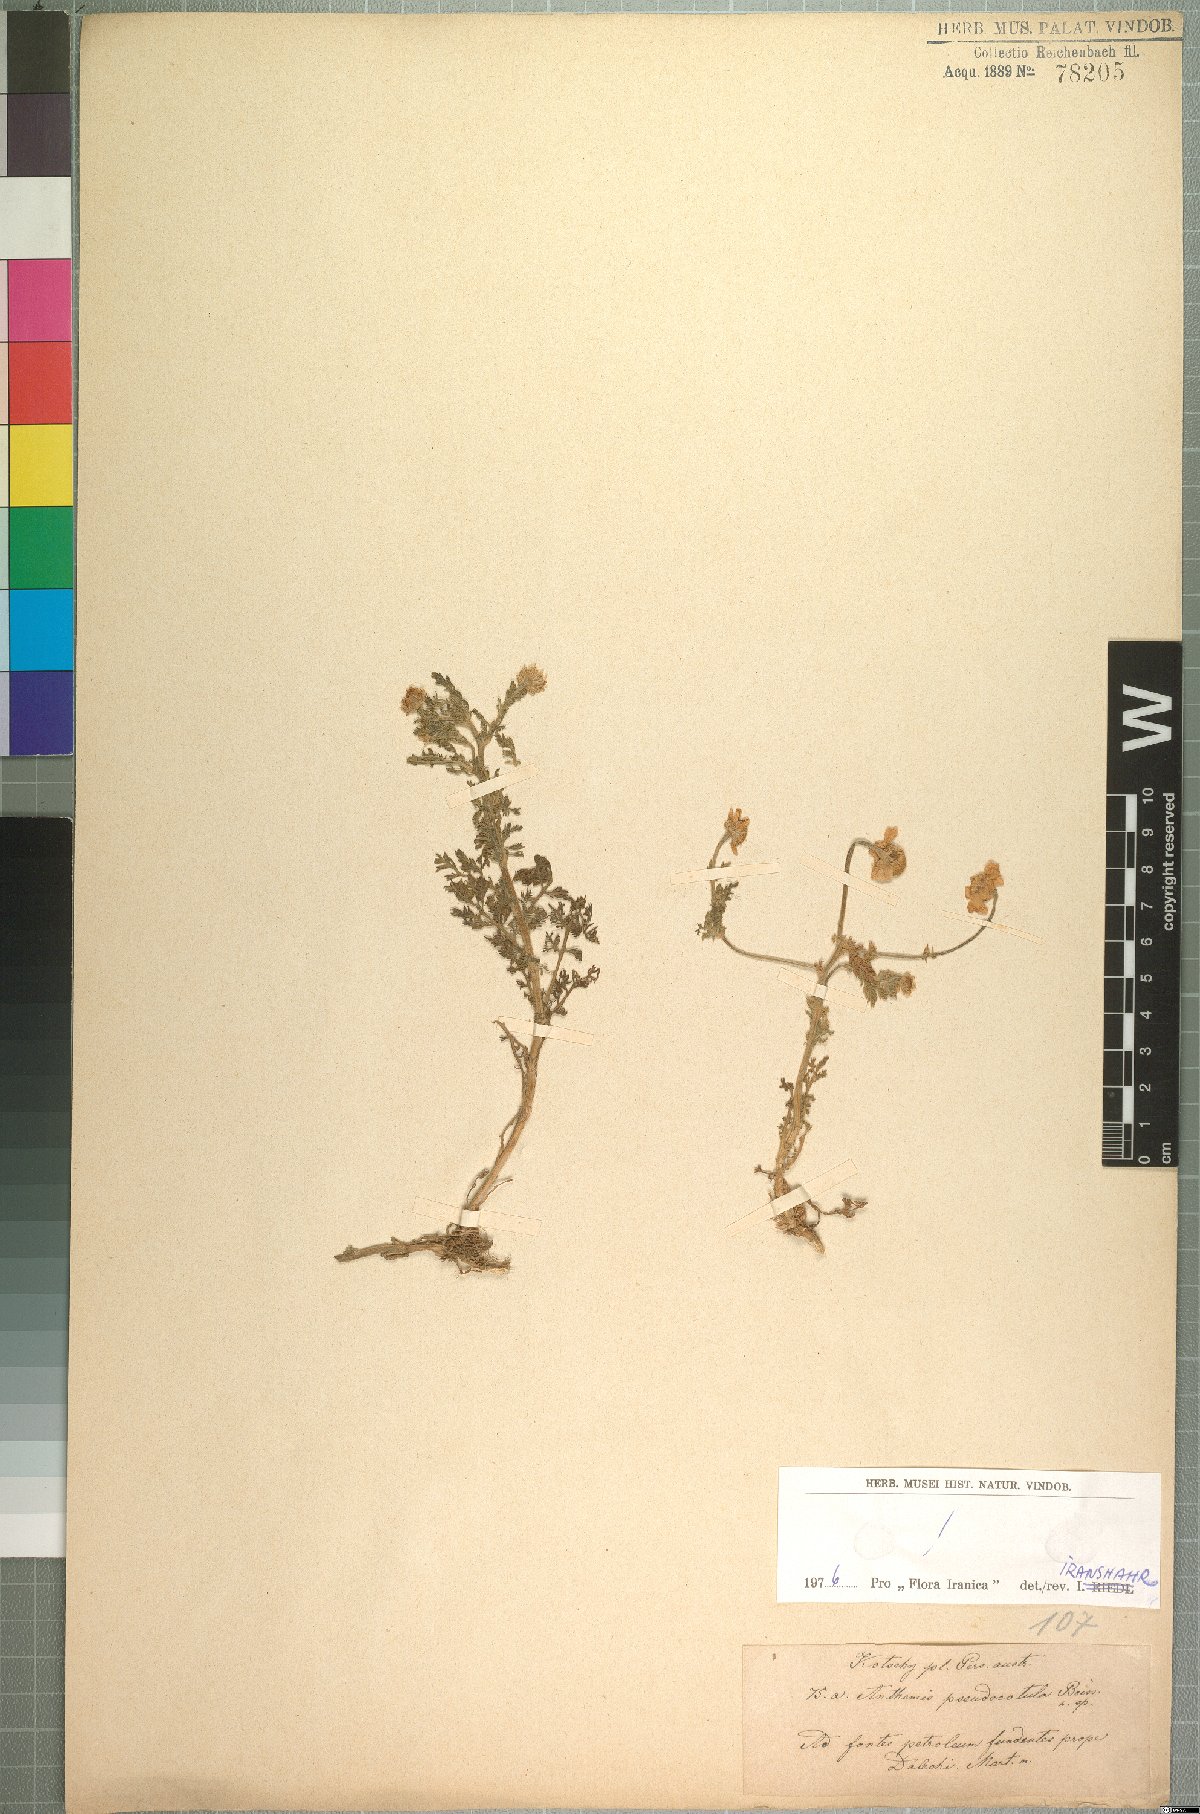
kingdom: Plantae
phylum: Tracheophyta
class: Magnoliopsida
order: Asterales
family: Asteraceae
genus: Anthemis
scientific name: Anthemis pseudocotula
